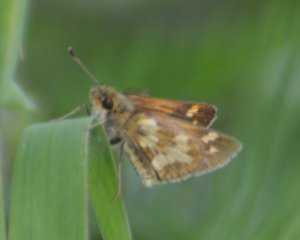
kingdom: Animalia
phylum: Arthropoda
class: Insecta
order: Lepidoptera
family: Hesperiidae
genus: Polites
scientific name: Polites coras
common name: Peck's Skipper
